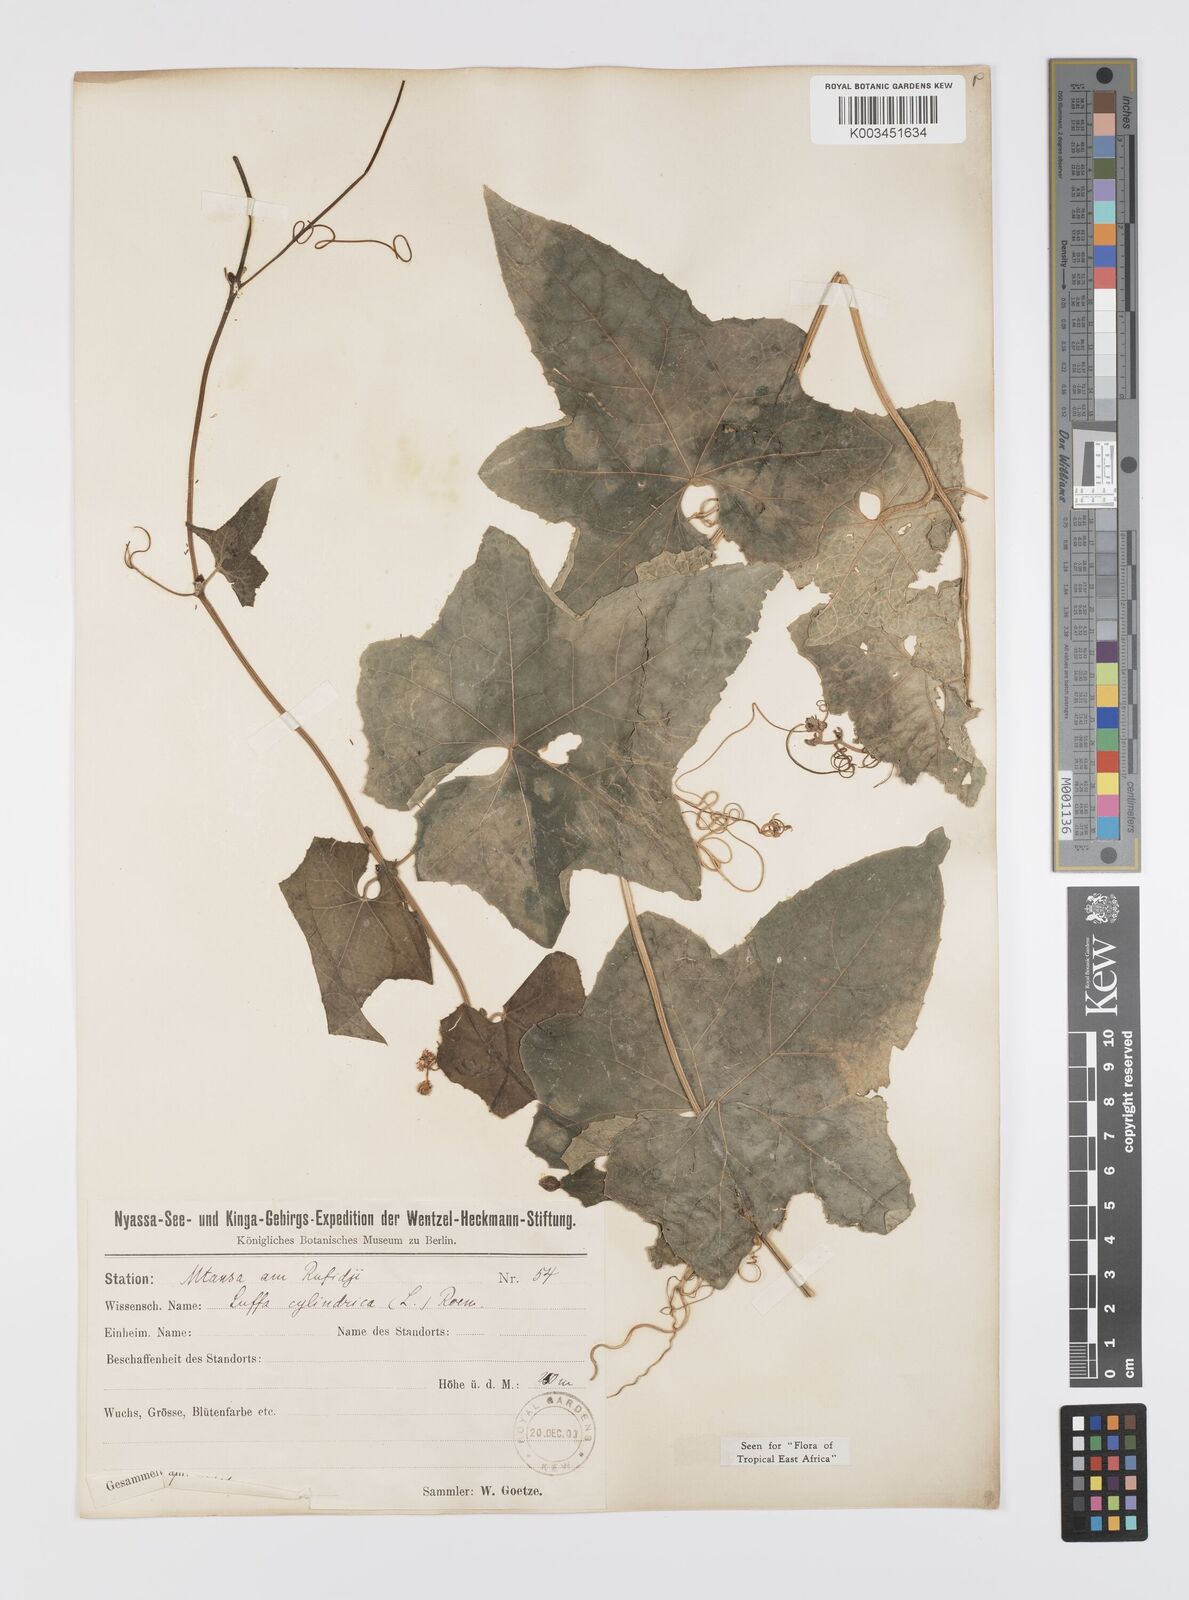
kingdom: Plantae
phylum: Tracheophyta
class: Magnoliopsida
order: Cucurbitales
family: Cucurbitaceae
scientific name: Cucurbitaceae
